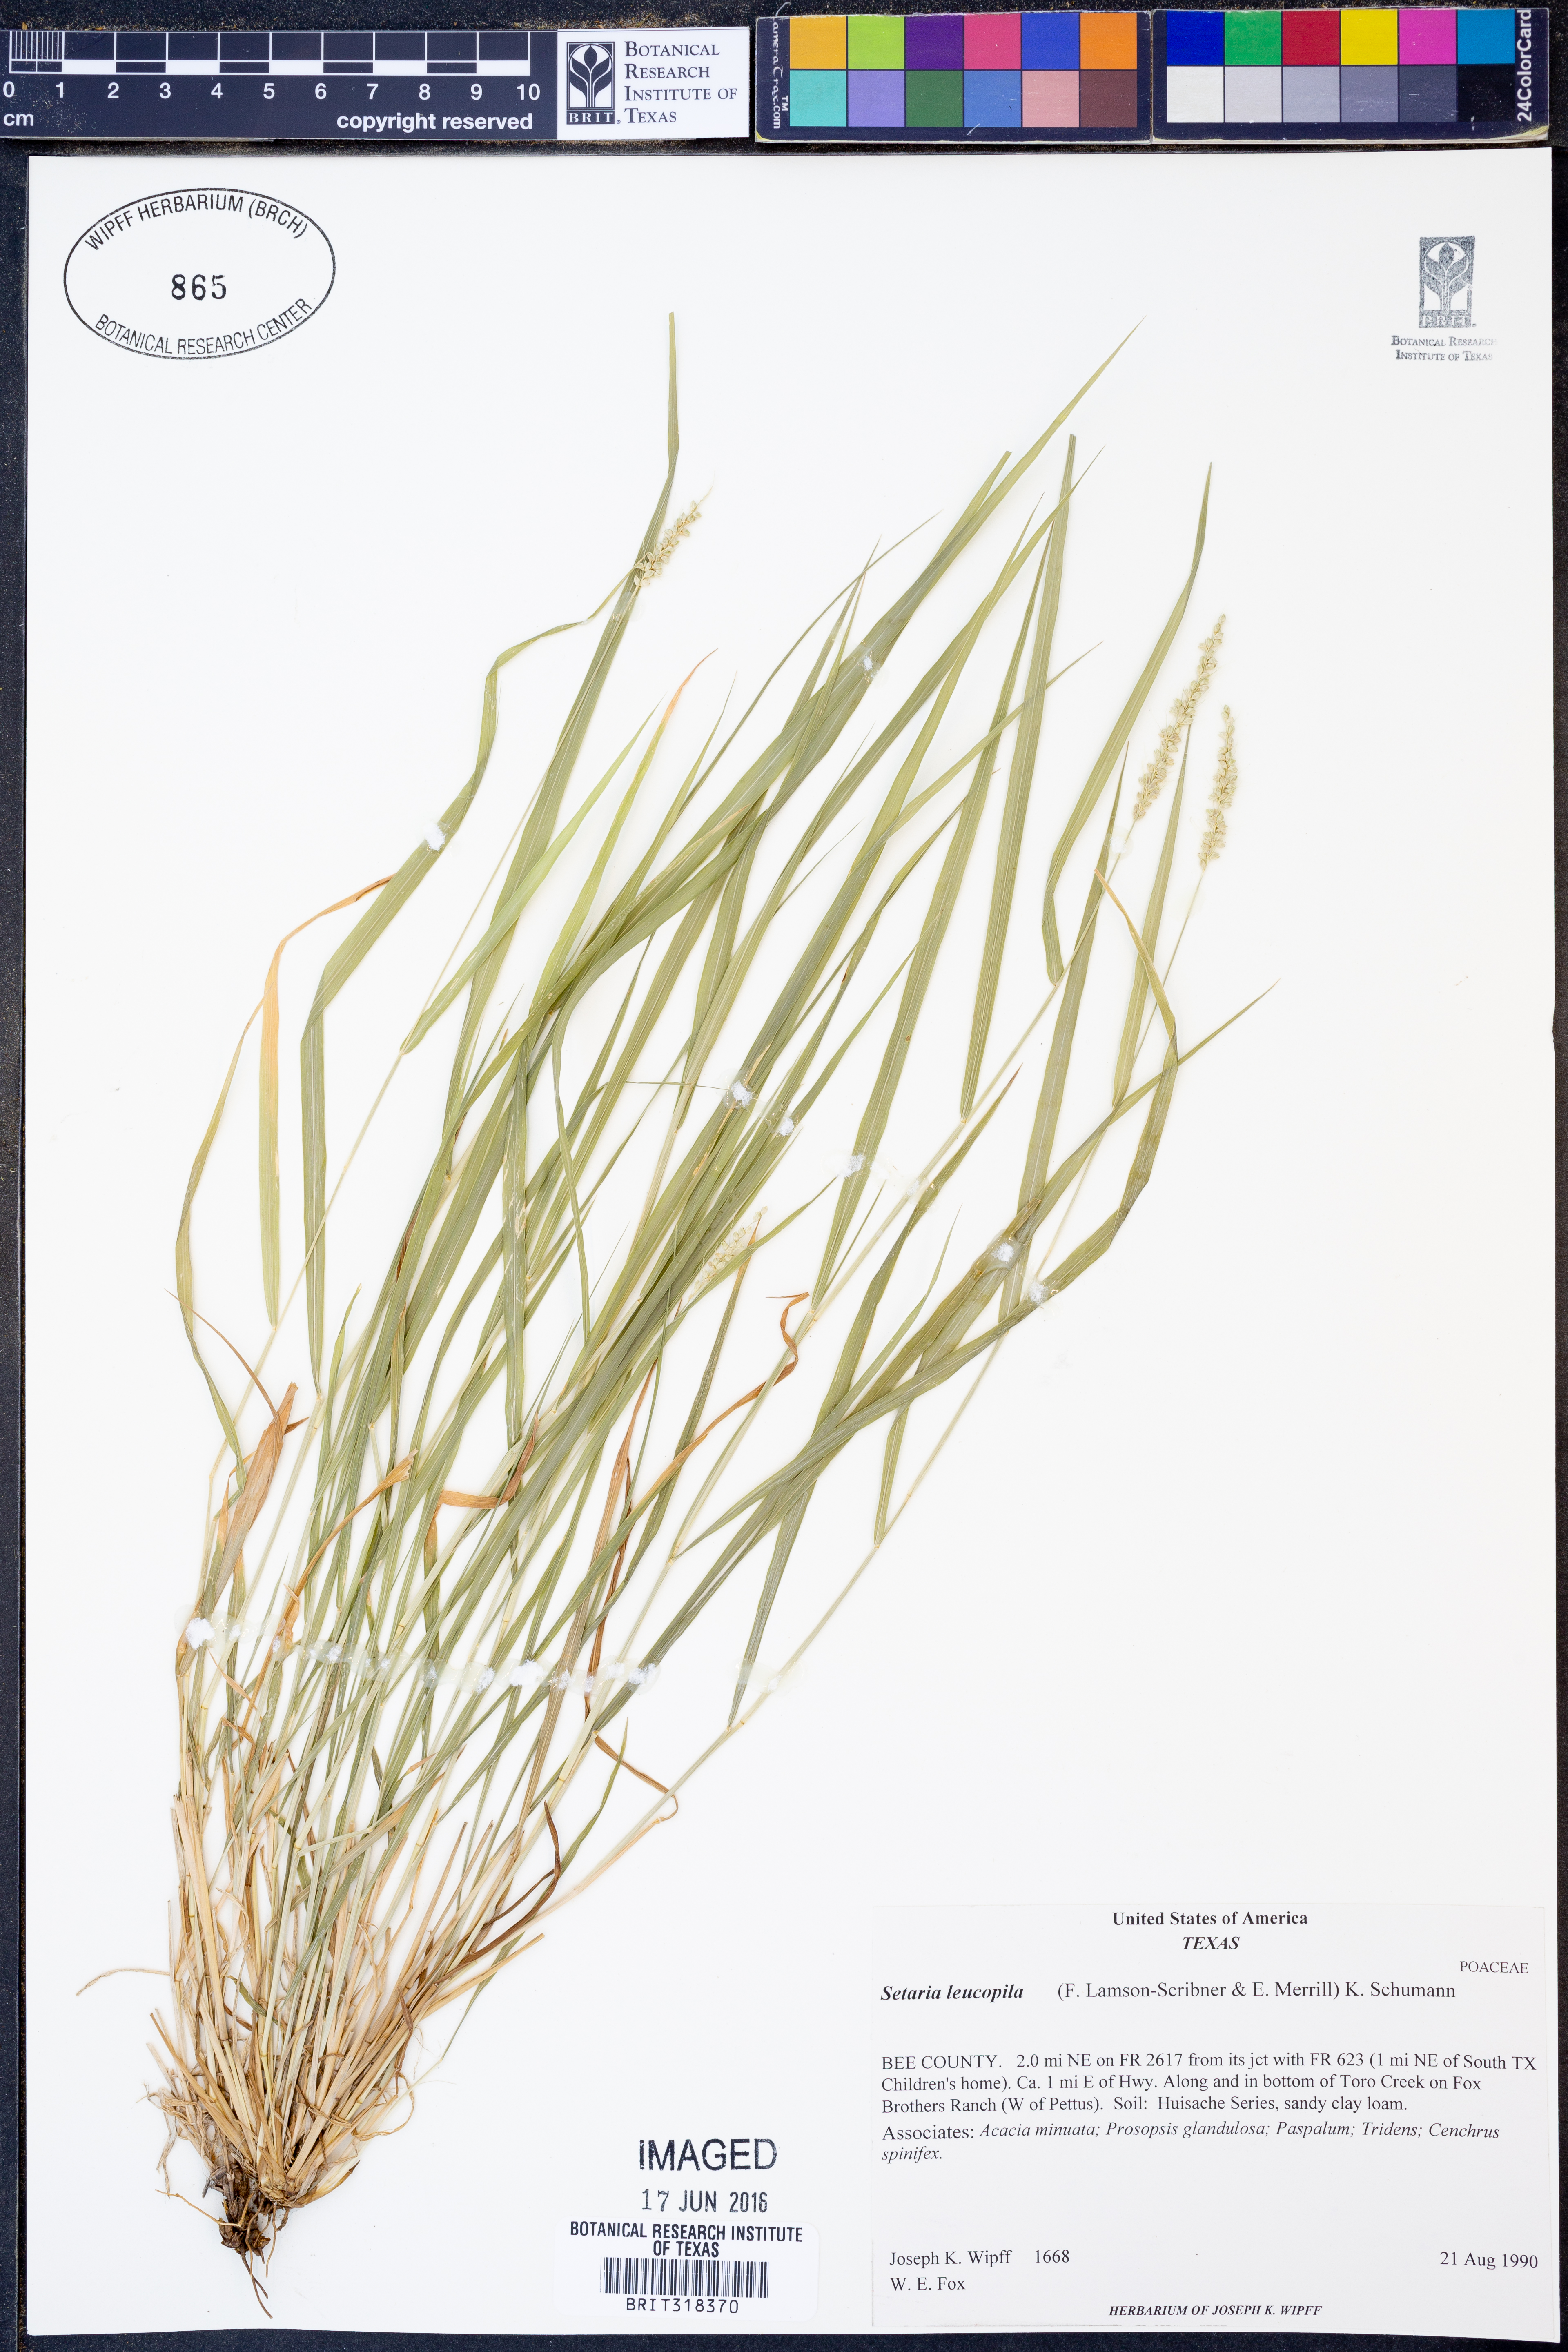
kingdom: Plantae
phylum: Tracheophyta
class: Liliopsida
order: Poales
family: Poaceae
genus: Setaria
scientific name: Setaria leucopila
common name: Plains bristle grass
